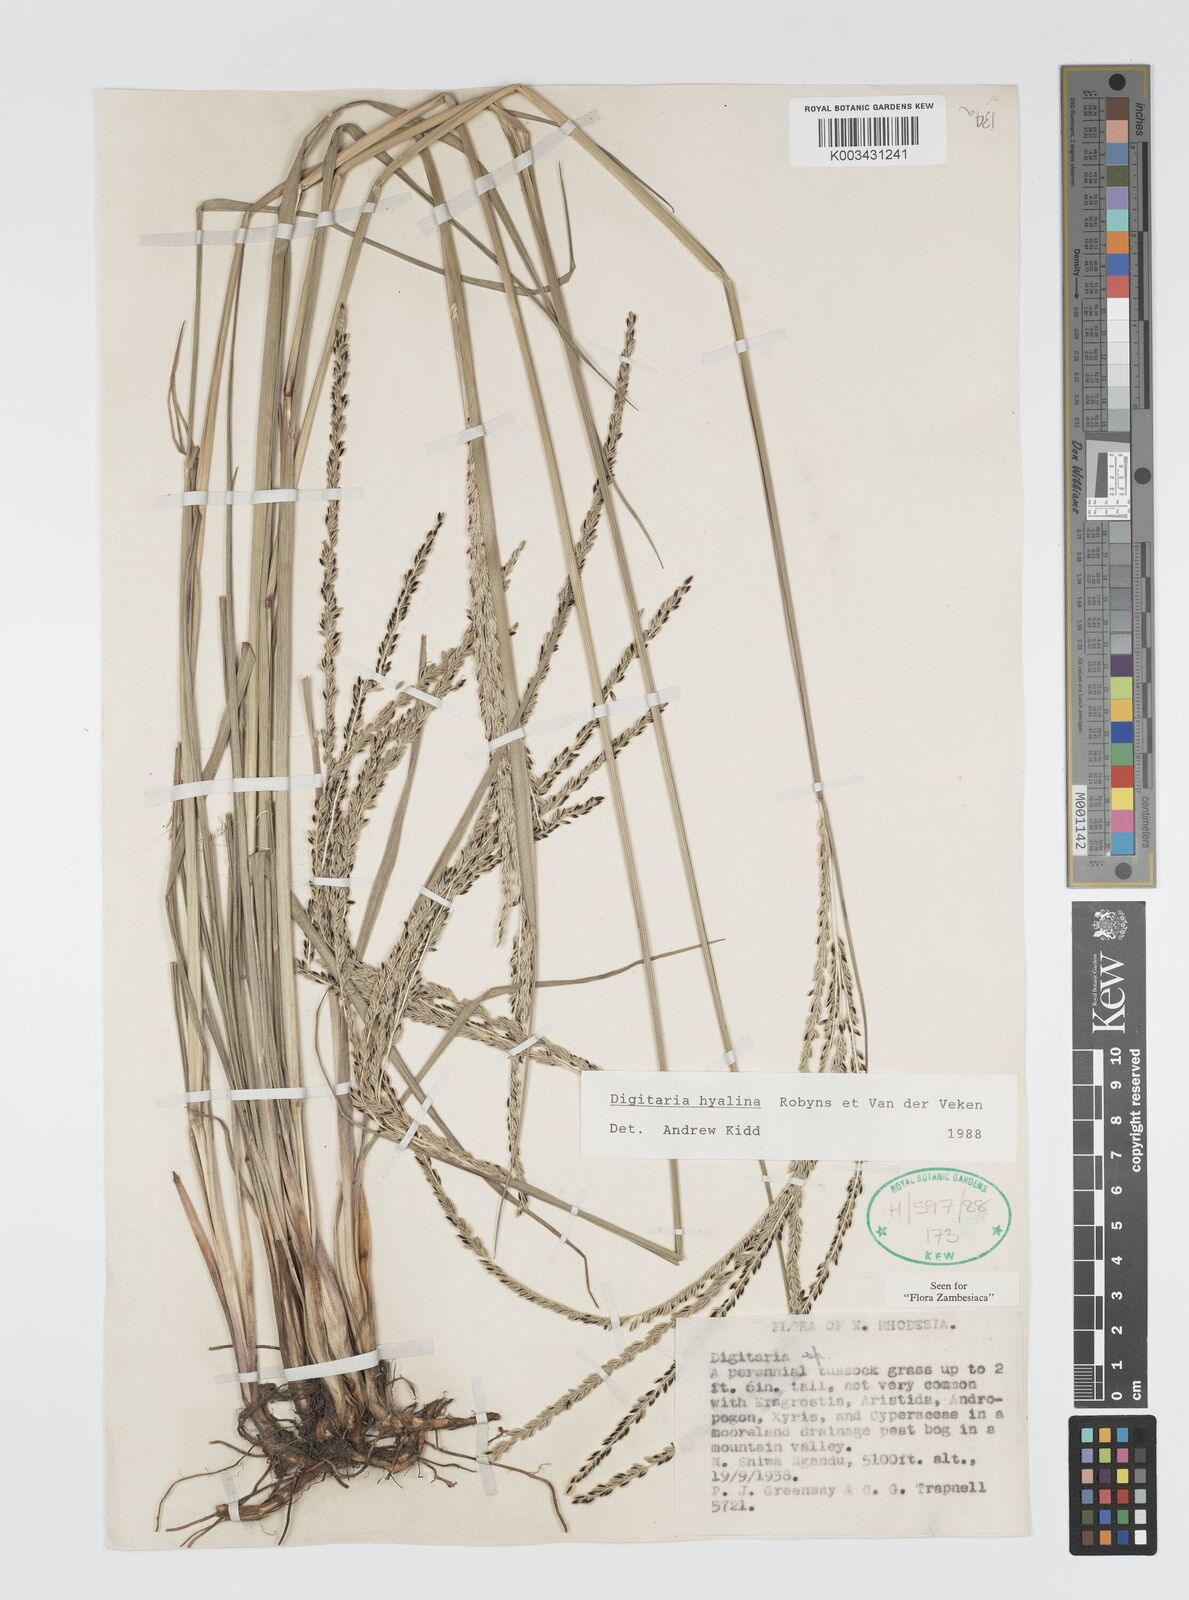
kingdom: Plantae
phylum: Tracheophyta
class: Liliopsida
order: Poales
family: Poaceae
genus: Digitaria
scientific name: Digitaria hyalina
